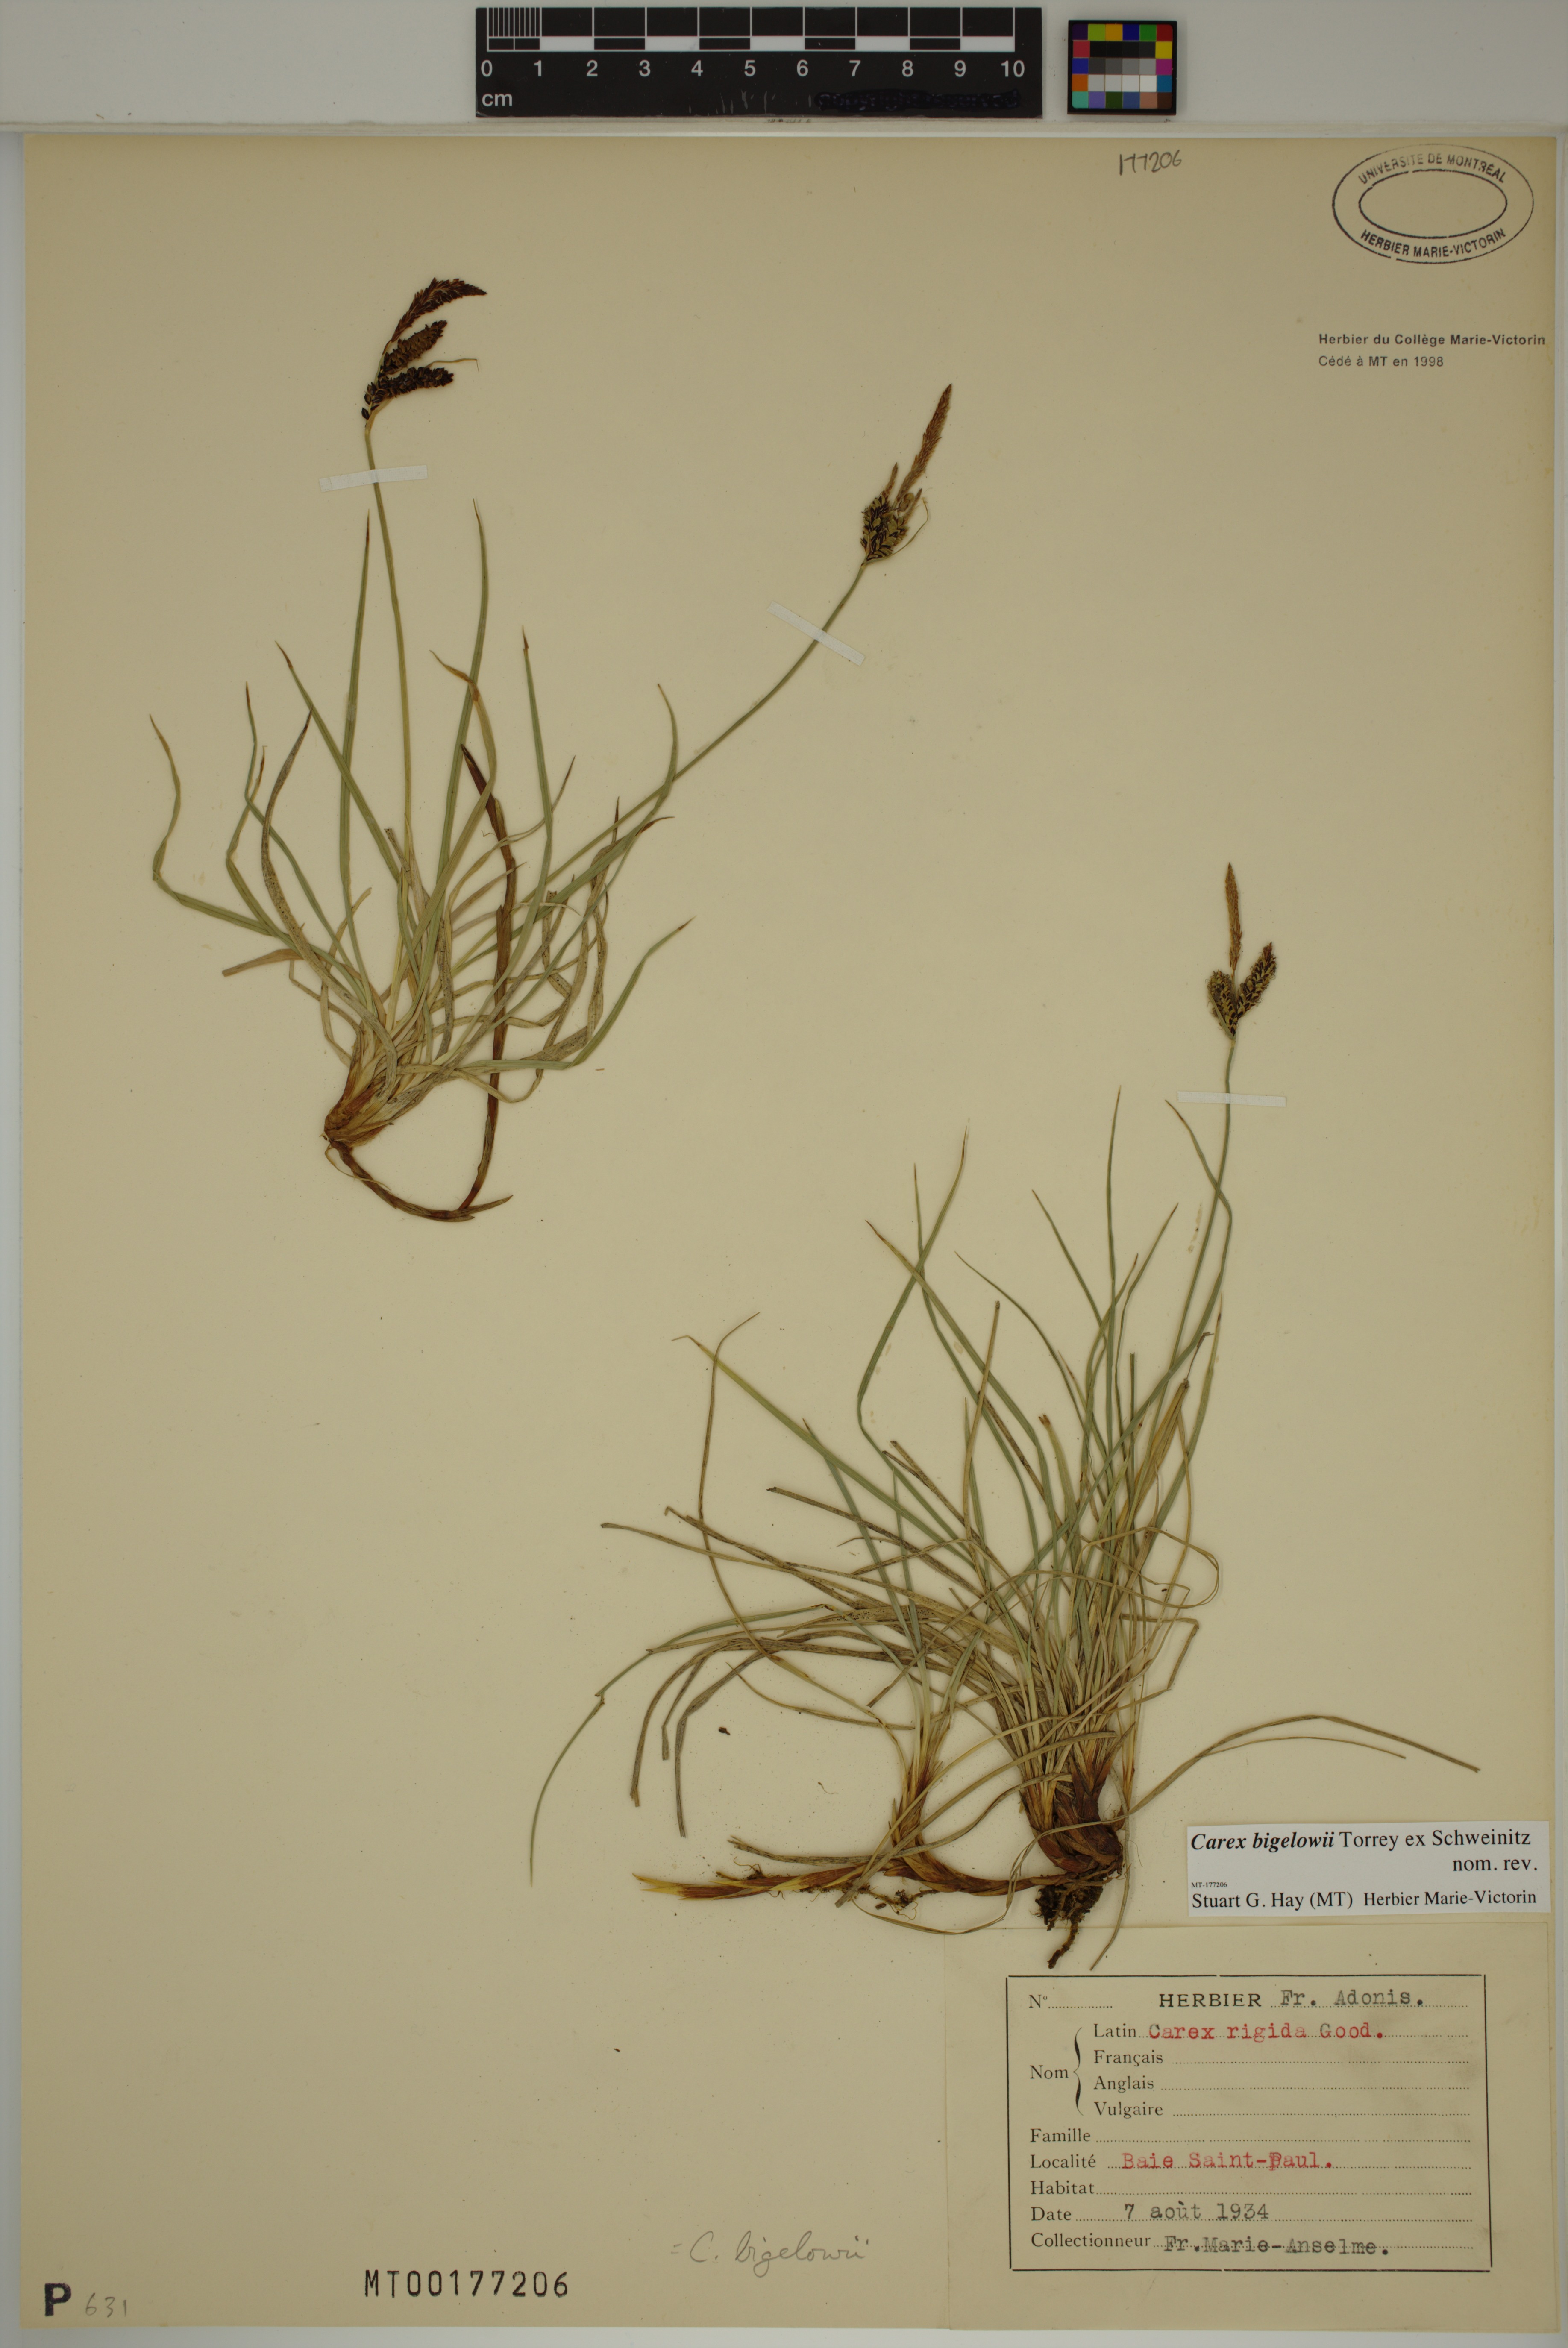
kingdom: Plantae
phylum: Tracheophyta
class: Liliopsida
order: Poales
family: Cyperaceae
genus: Carex
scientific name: Carex bigelowii
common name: Stiff sedge
